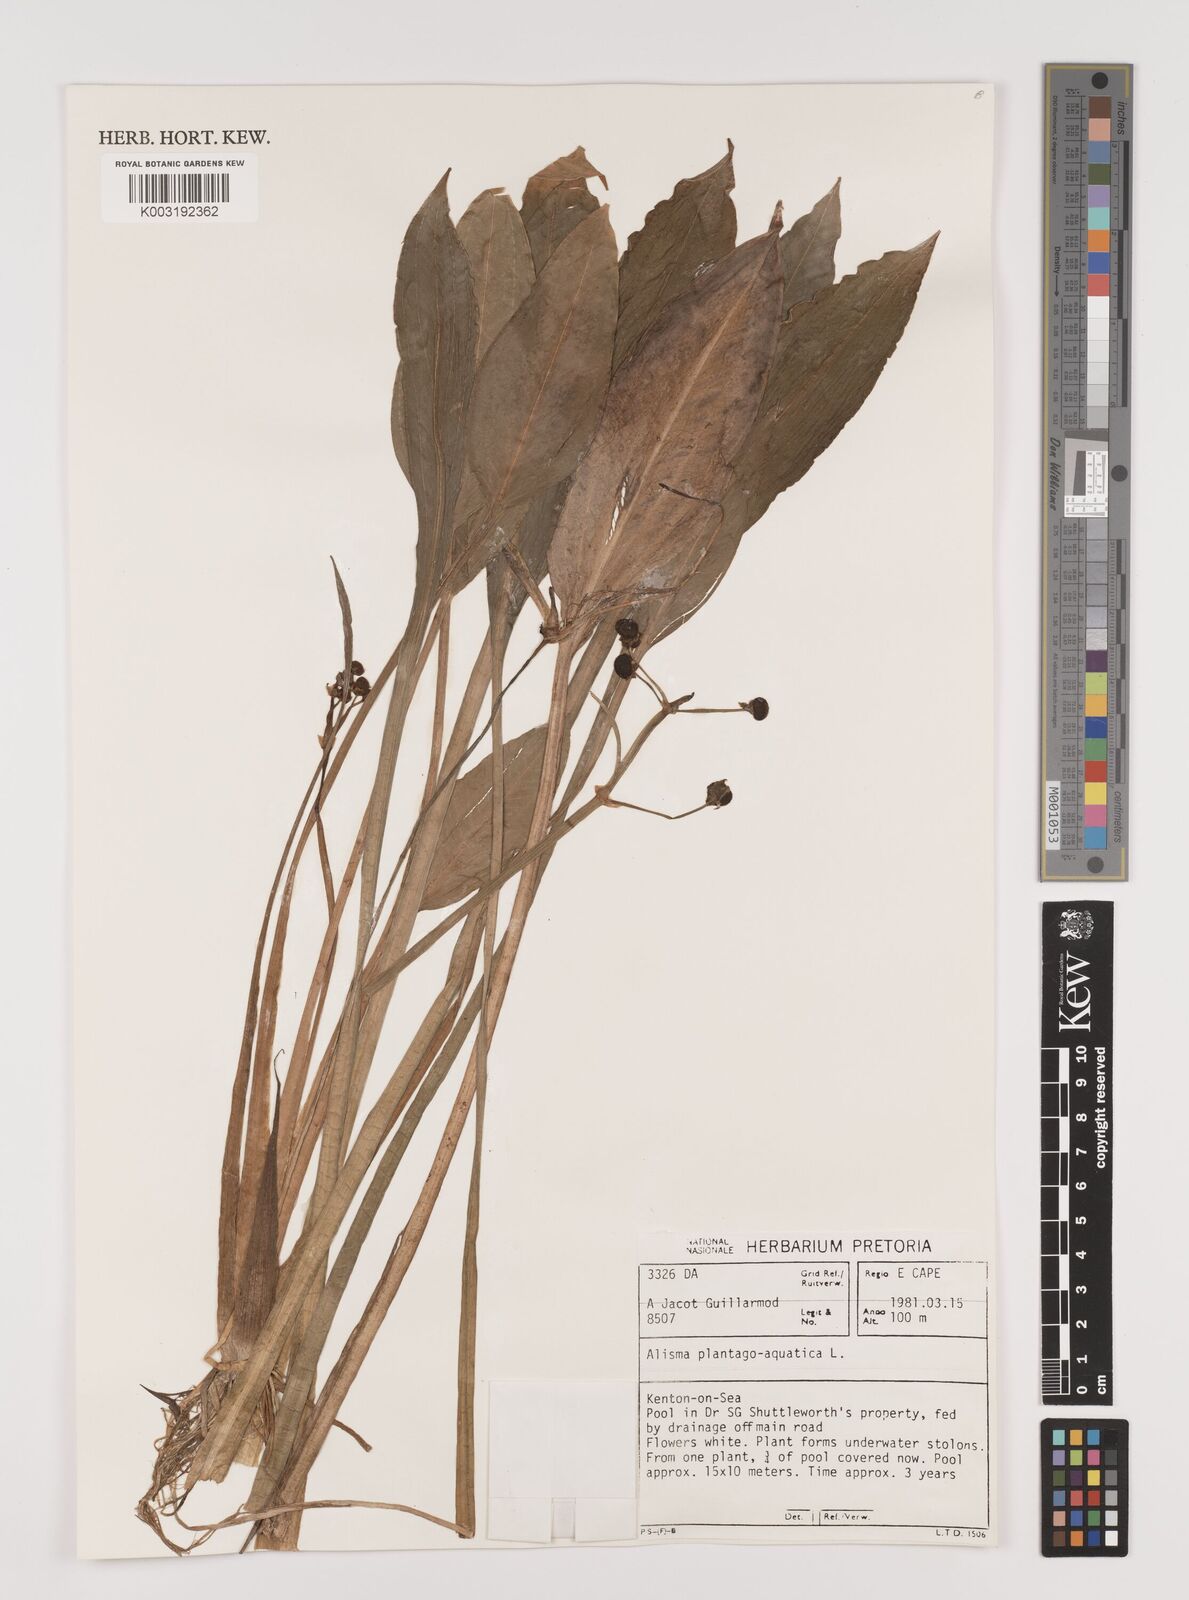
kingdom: Plantae
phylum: Tracheophyta
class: Liliopsida
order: Alismatales
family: Alismataceae
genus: Alisma
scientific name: Alisma plantago-aquatica
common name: Water-plantain
